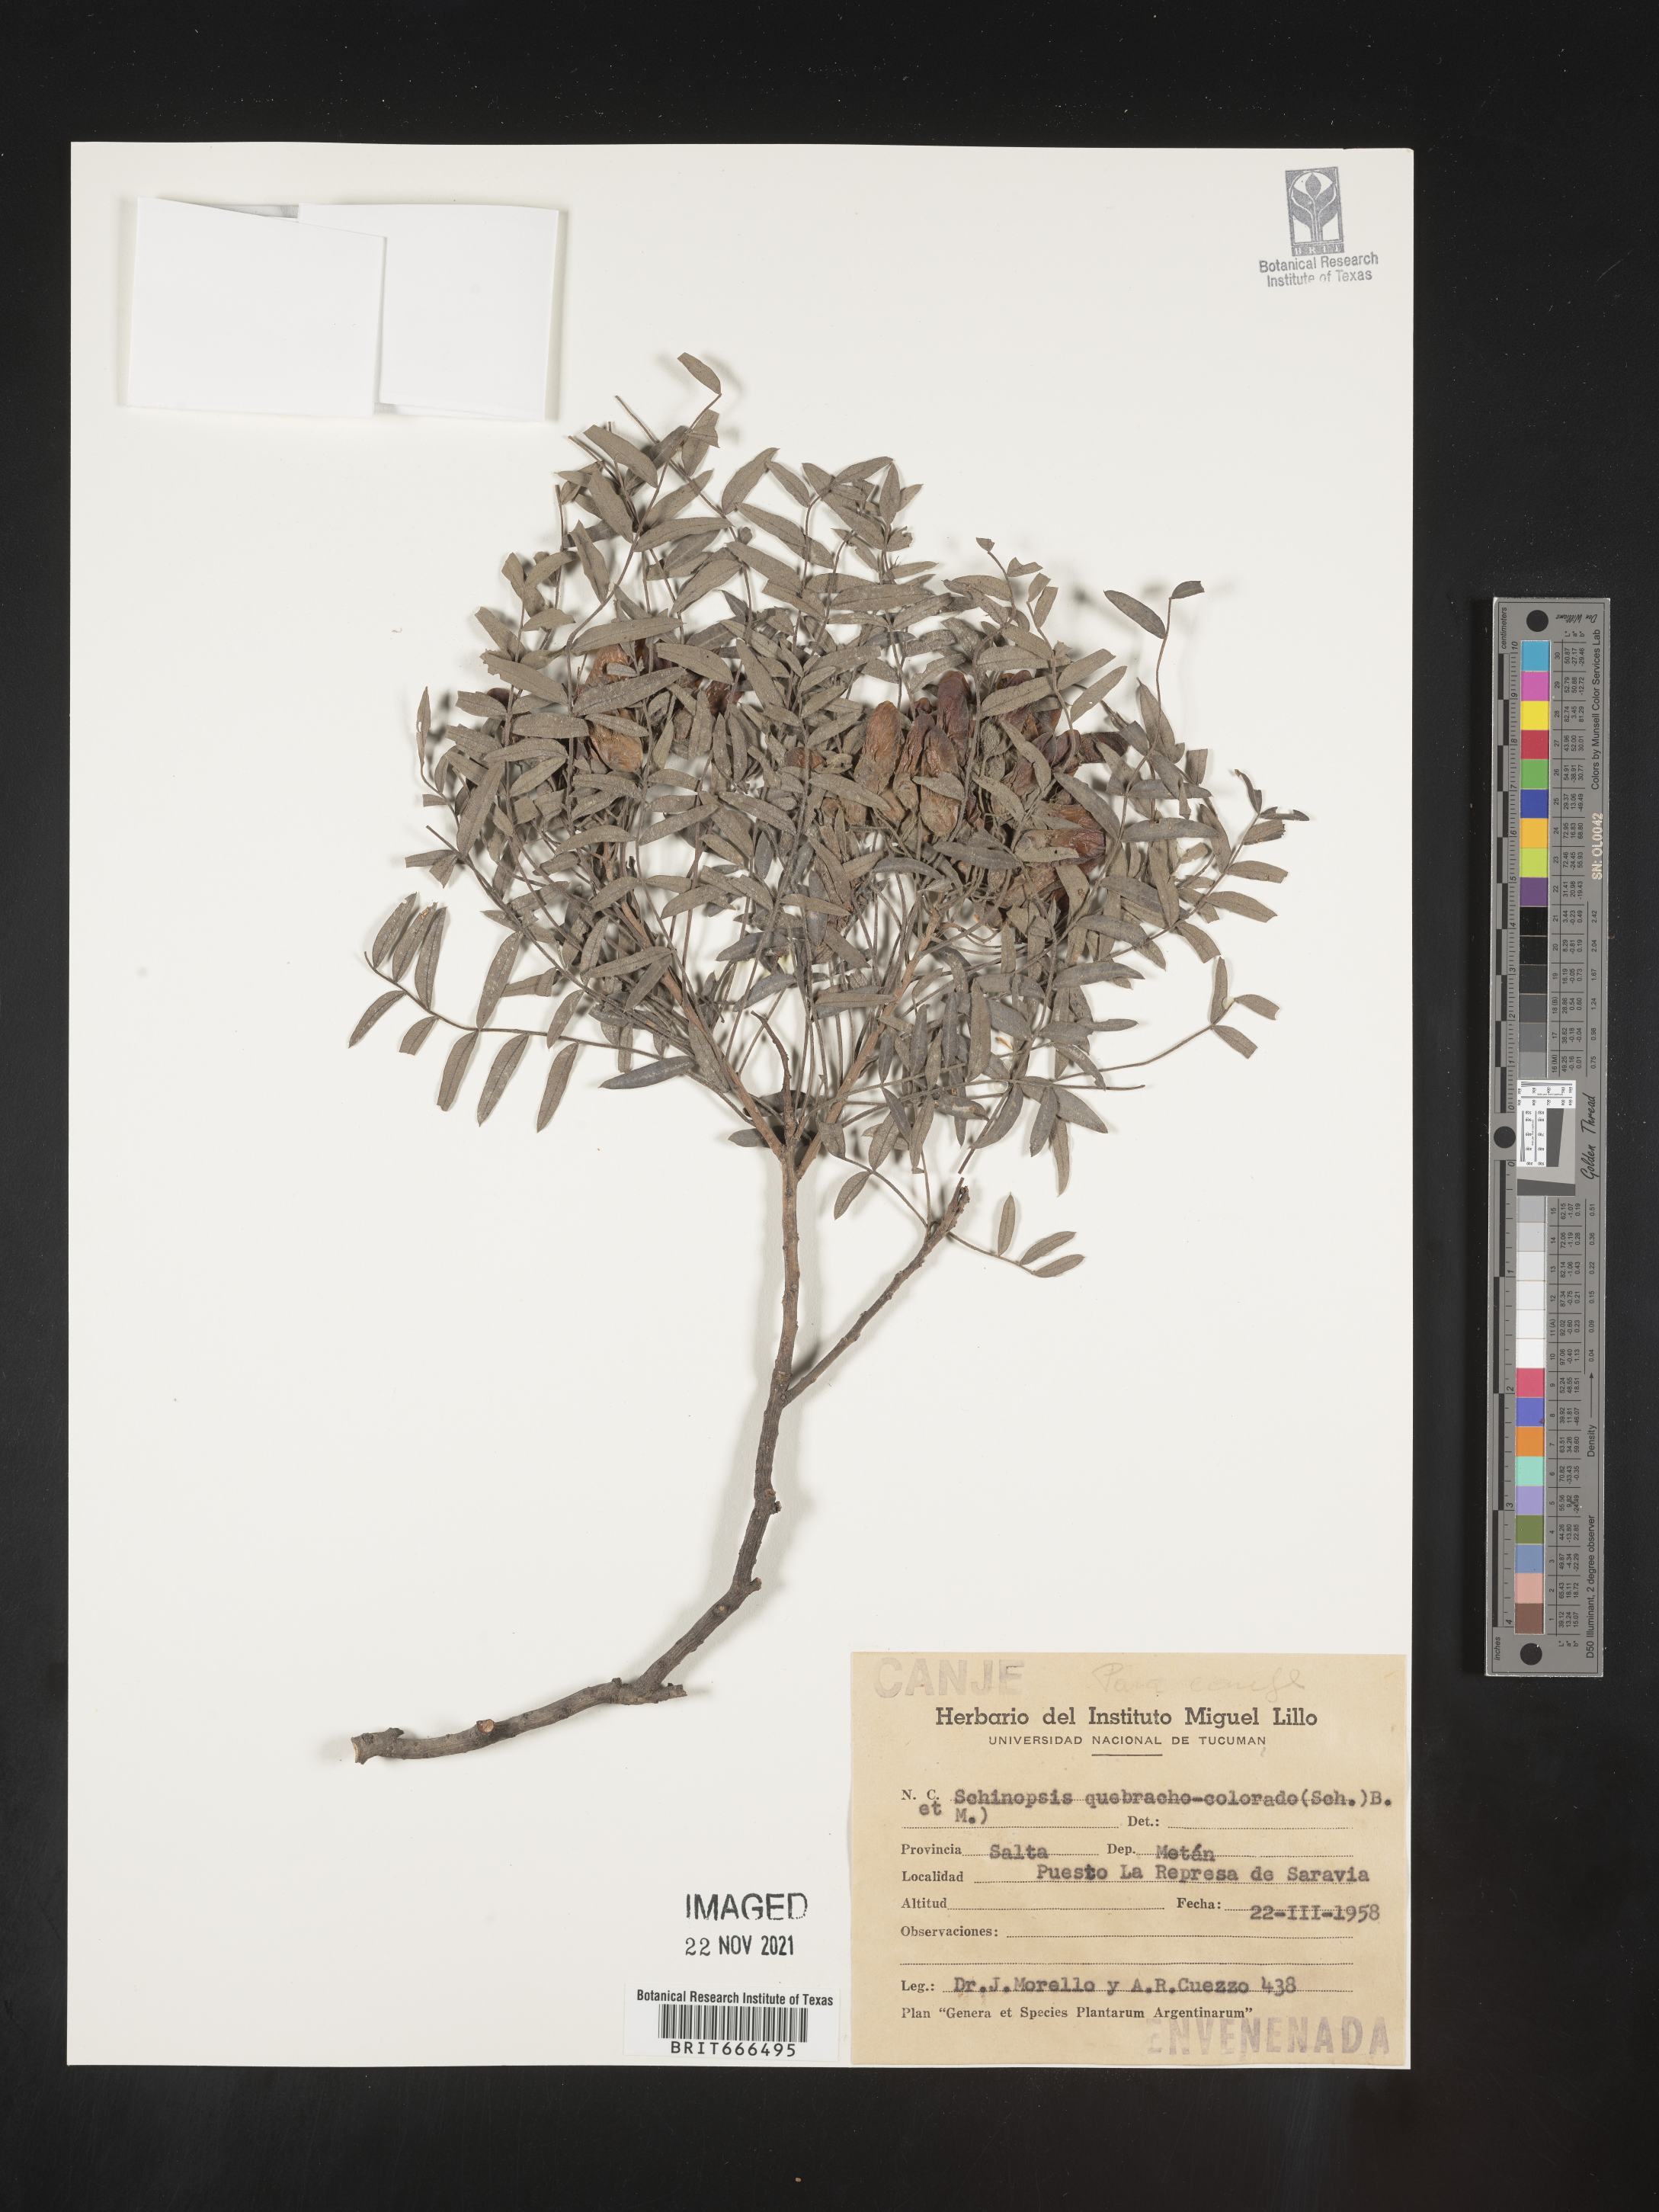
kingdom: Plantae
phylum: Tracheophyta
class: Magnoliopsida
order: Sapindales
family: Anacardiaceae
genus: Schinopsis
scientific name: Schinopsis
